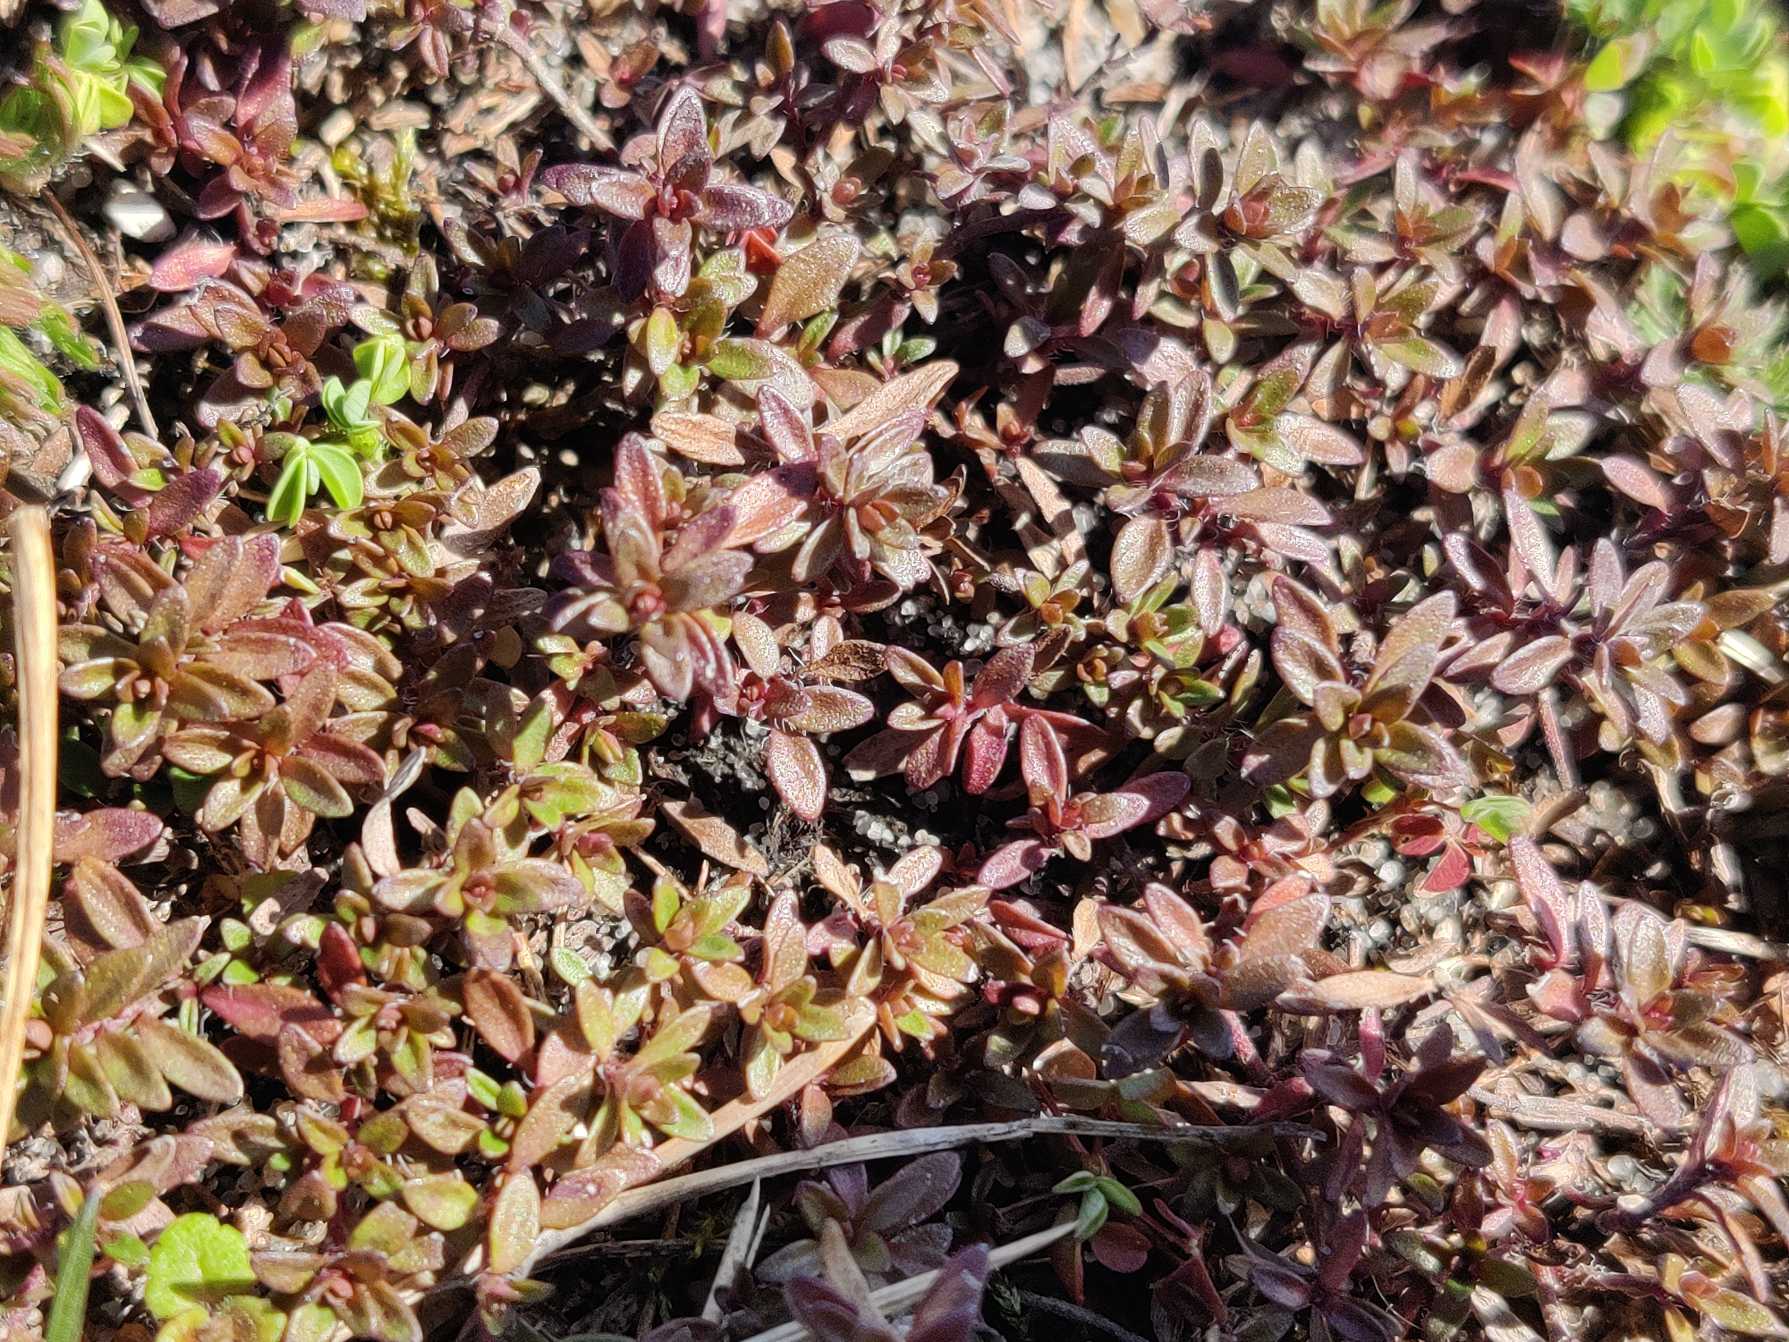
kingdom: Plantae
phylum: Tracheophyta
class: Magnoliopsida
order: Lamiales
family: Lamiaceae
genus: Thymus
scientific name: Thymus serpyllum
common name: Smalbladet timian
